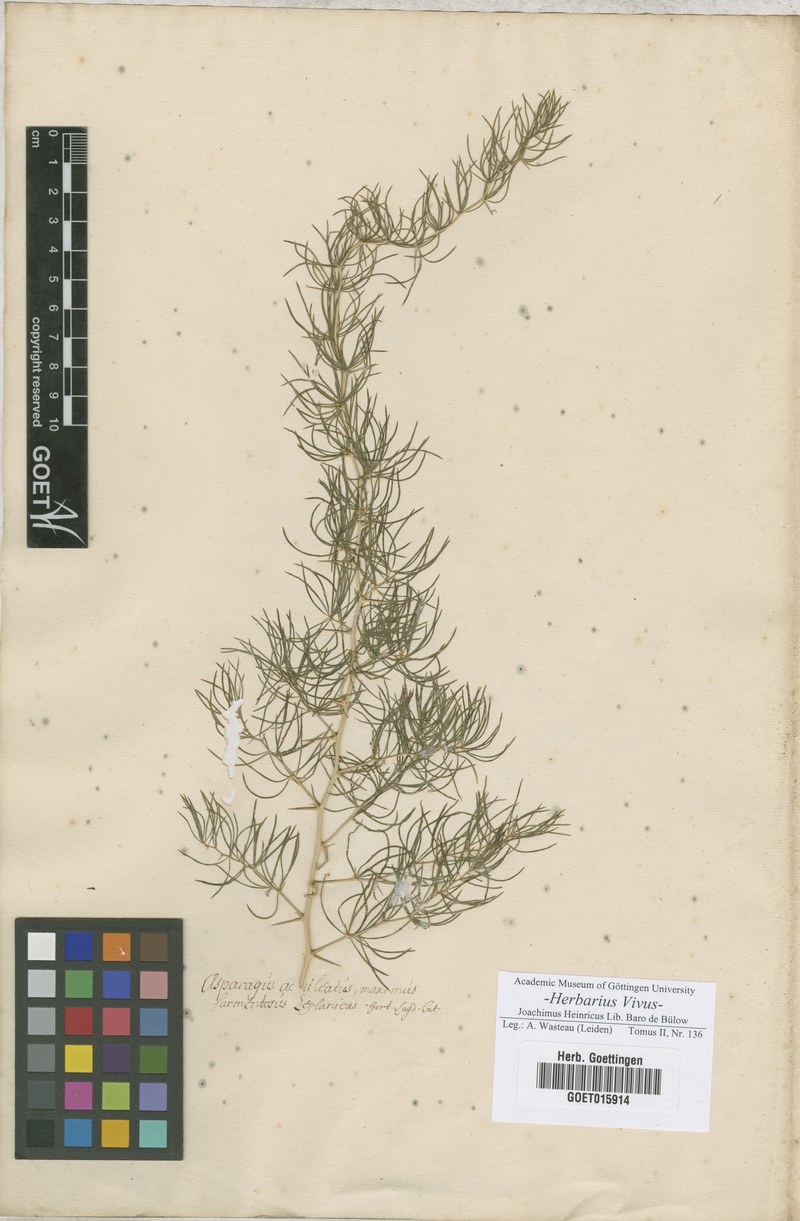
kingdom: Plantae
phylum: Tracheophyta
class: Liliopsida
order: Asparagales
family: Asparagaceae
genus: Asparagus
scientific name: Asparagus sarmentosus
